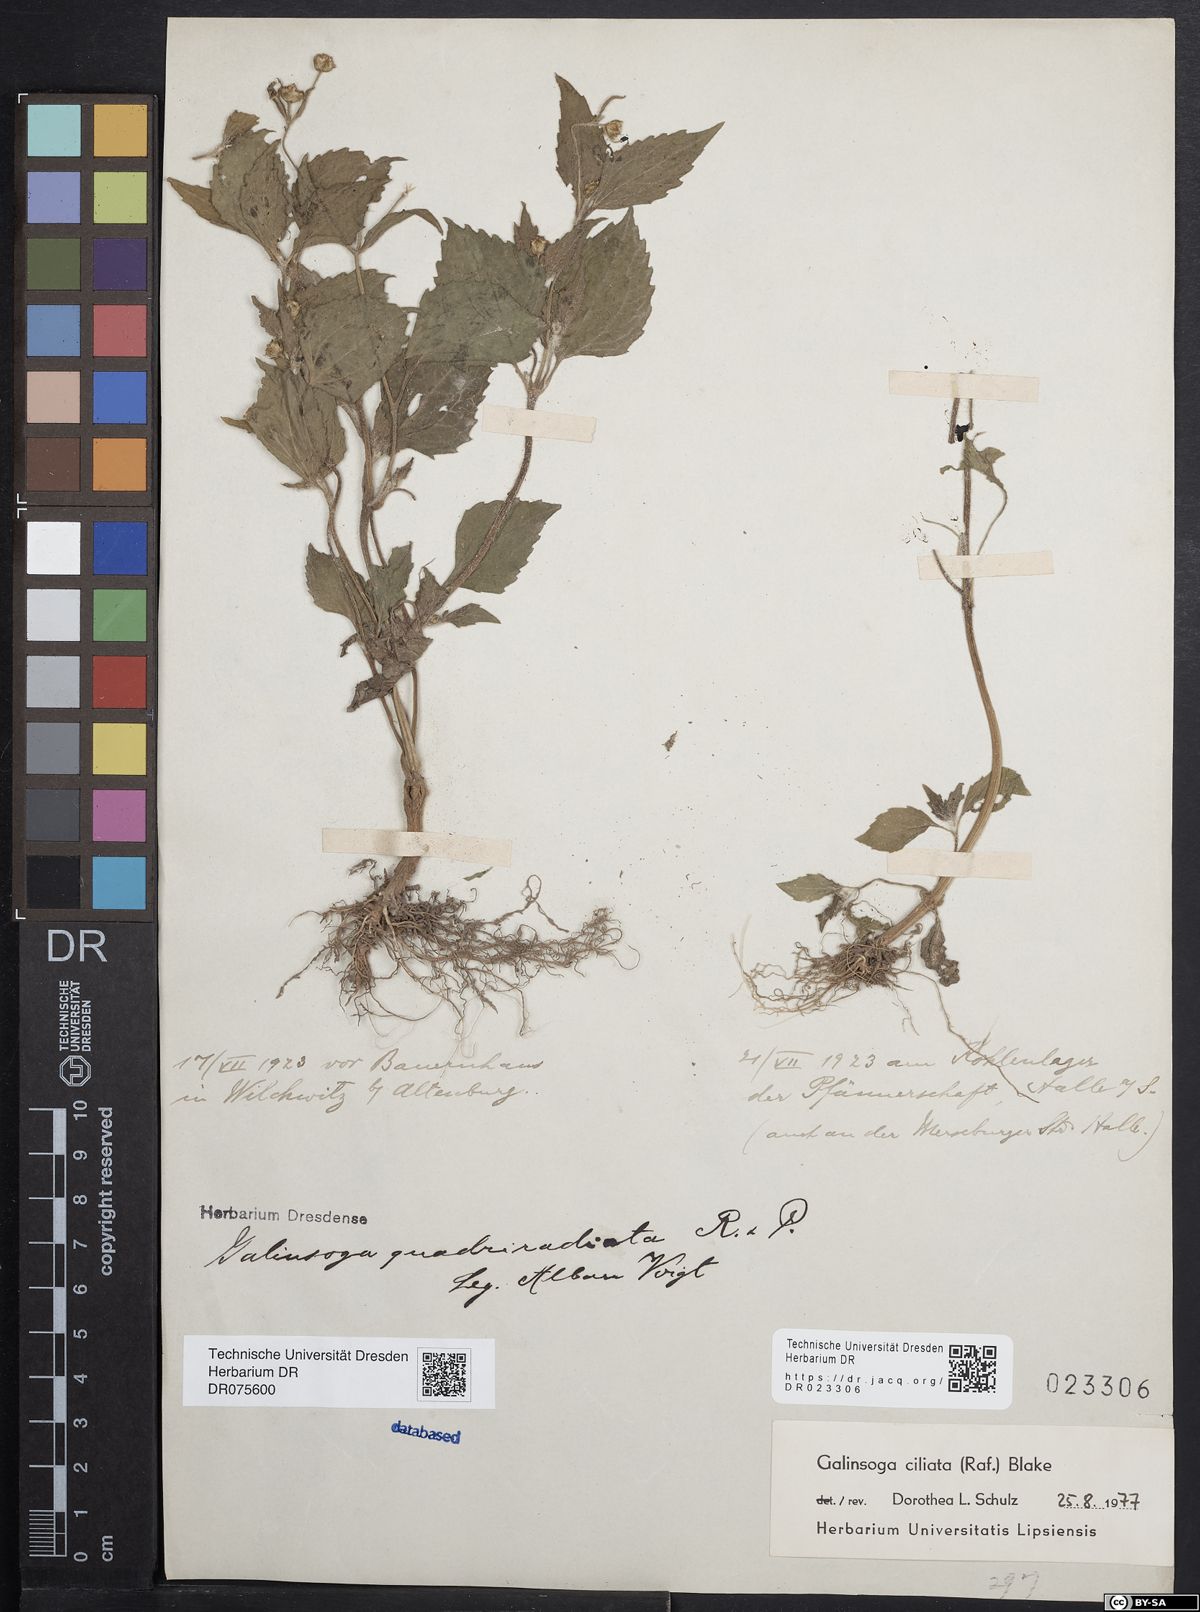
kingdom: Plantae
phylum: Tracheophyta
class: Magnoliopsida
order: Asterales
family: Asteraceae
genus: Galinsoga
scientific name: Galinsoga quadriradiata
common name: Shaggy soldier
